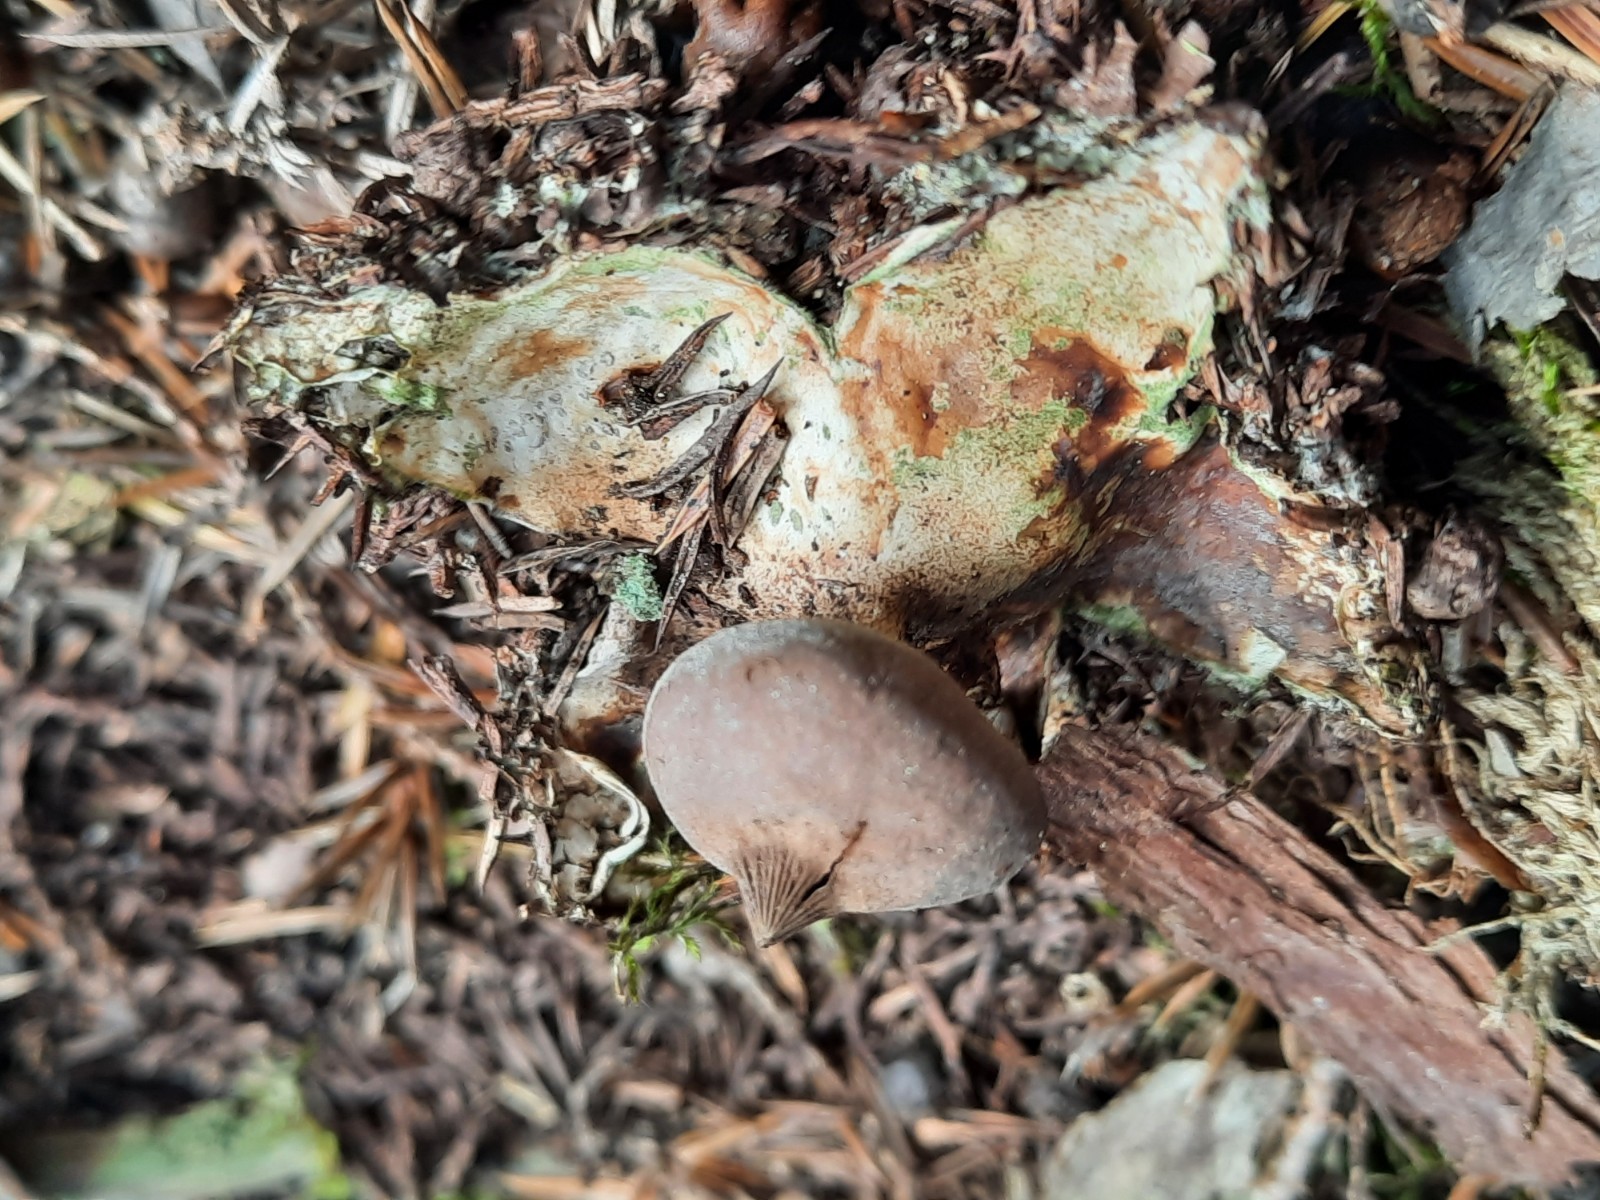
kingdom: Fungi
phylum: Basidiomycota
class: Agaricomycetes
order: Geastrales
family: Geastraceae
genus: Geastrum
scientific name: Geastrum pectinatum
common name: stilket stjernebold
